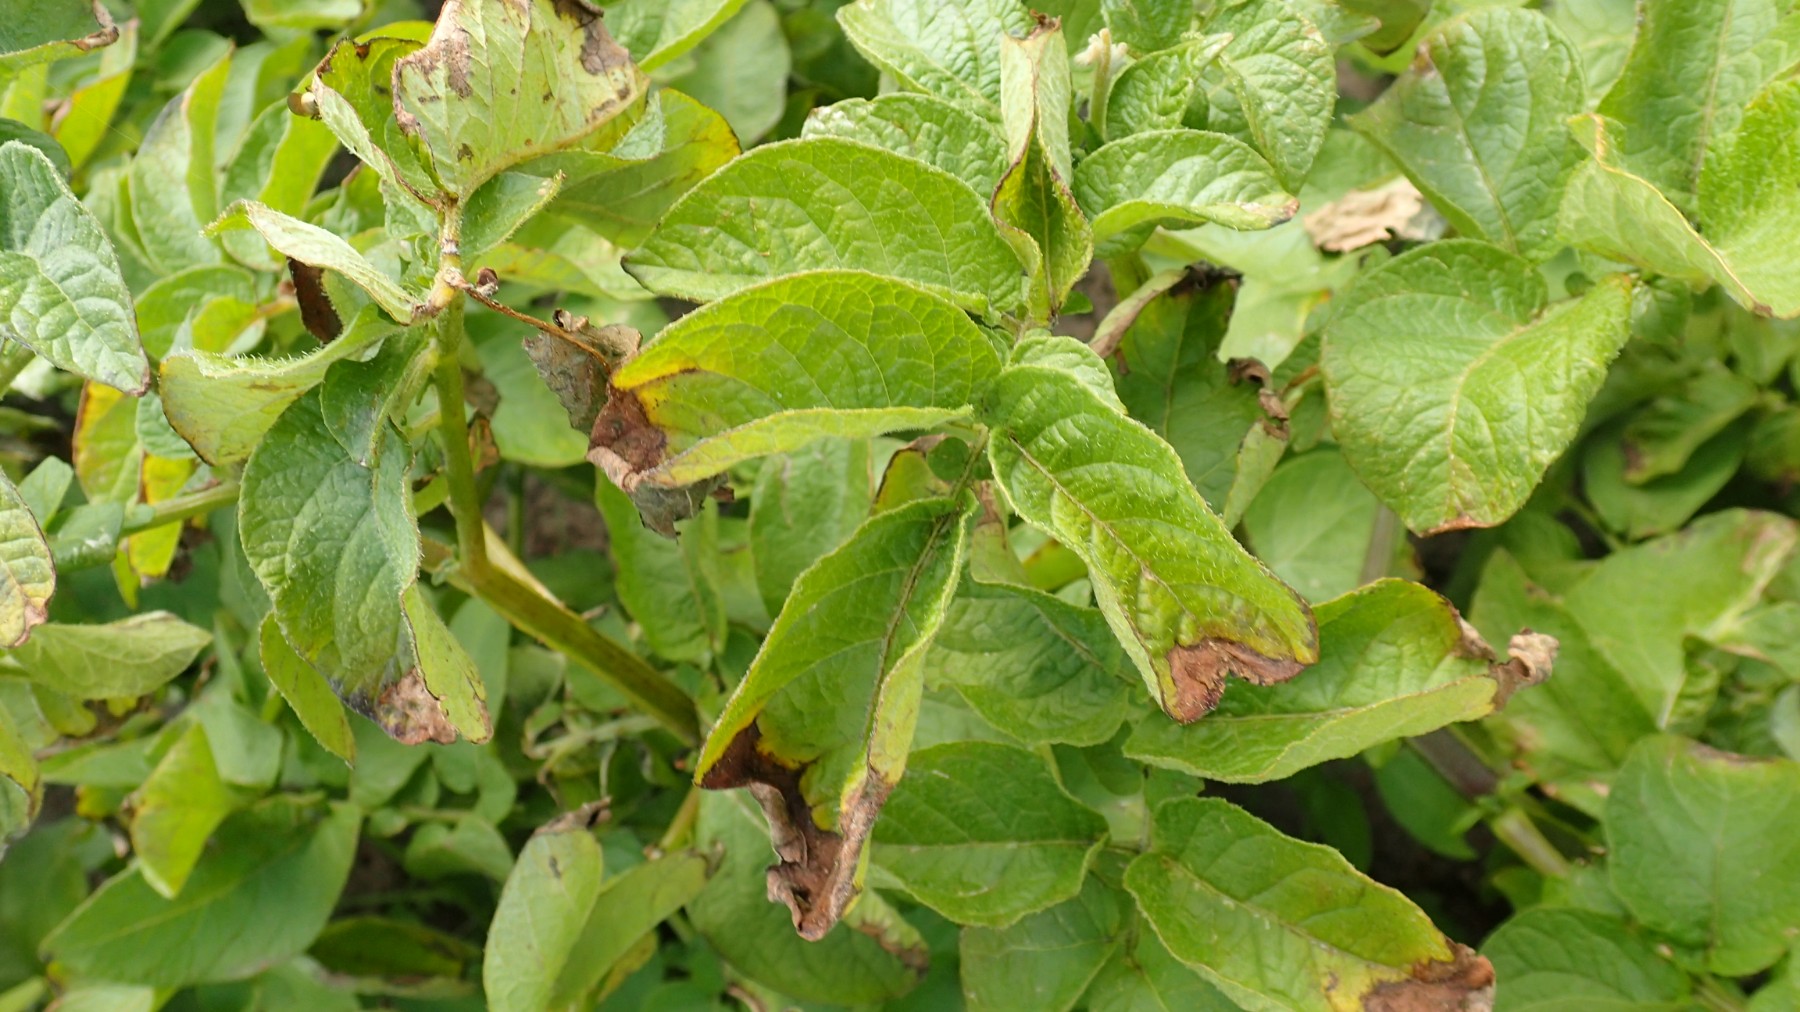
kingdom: Chromista
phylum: Oomycota
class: Peronosporea
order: Peronosporales
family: Peronosporaceae
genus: Phytophthora
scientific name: Phytophthora infestans
